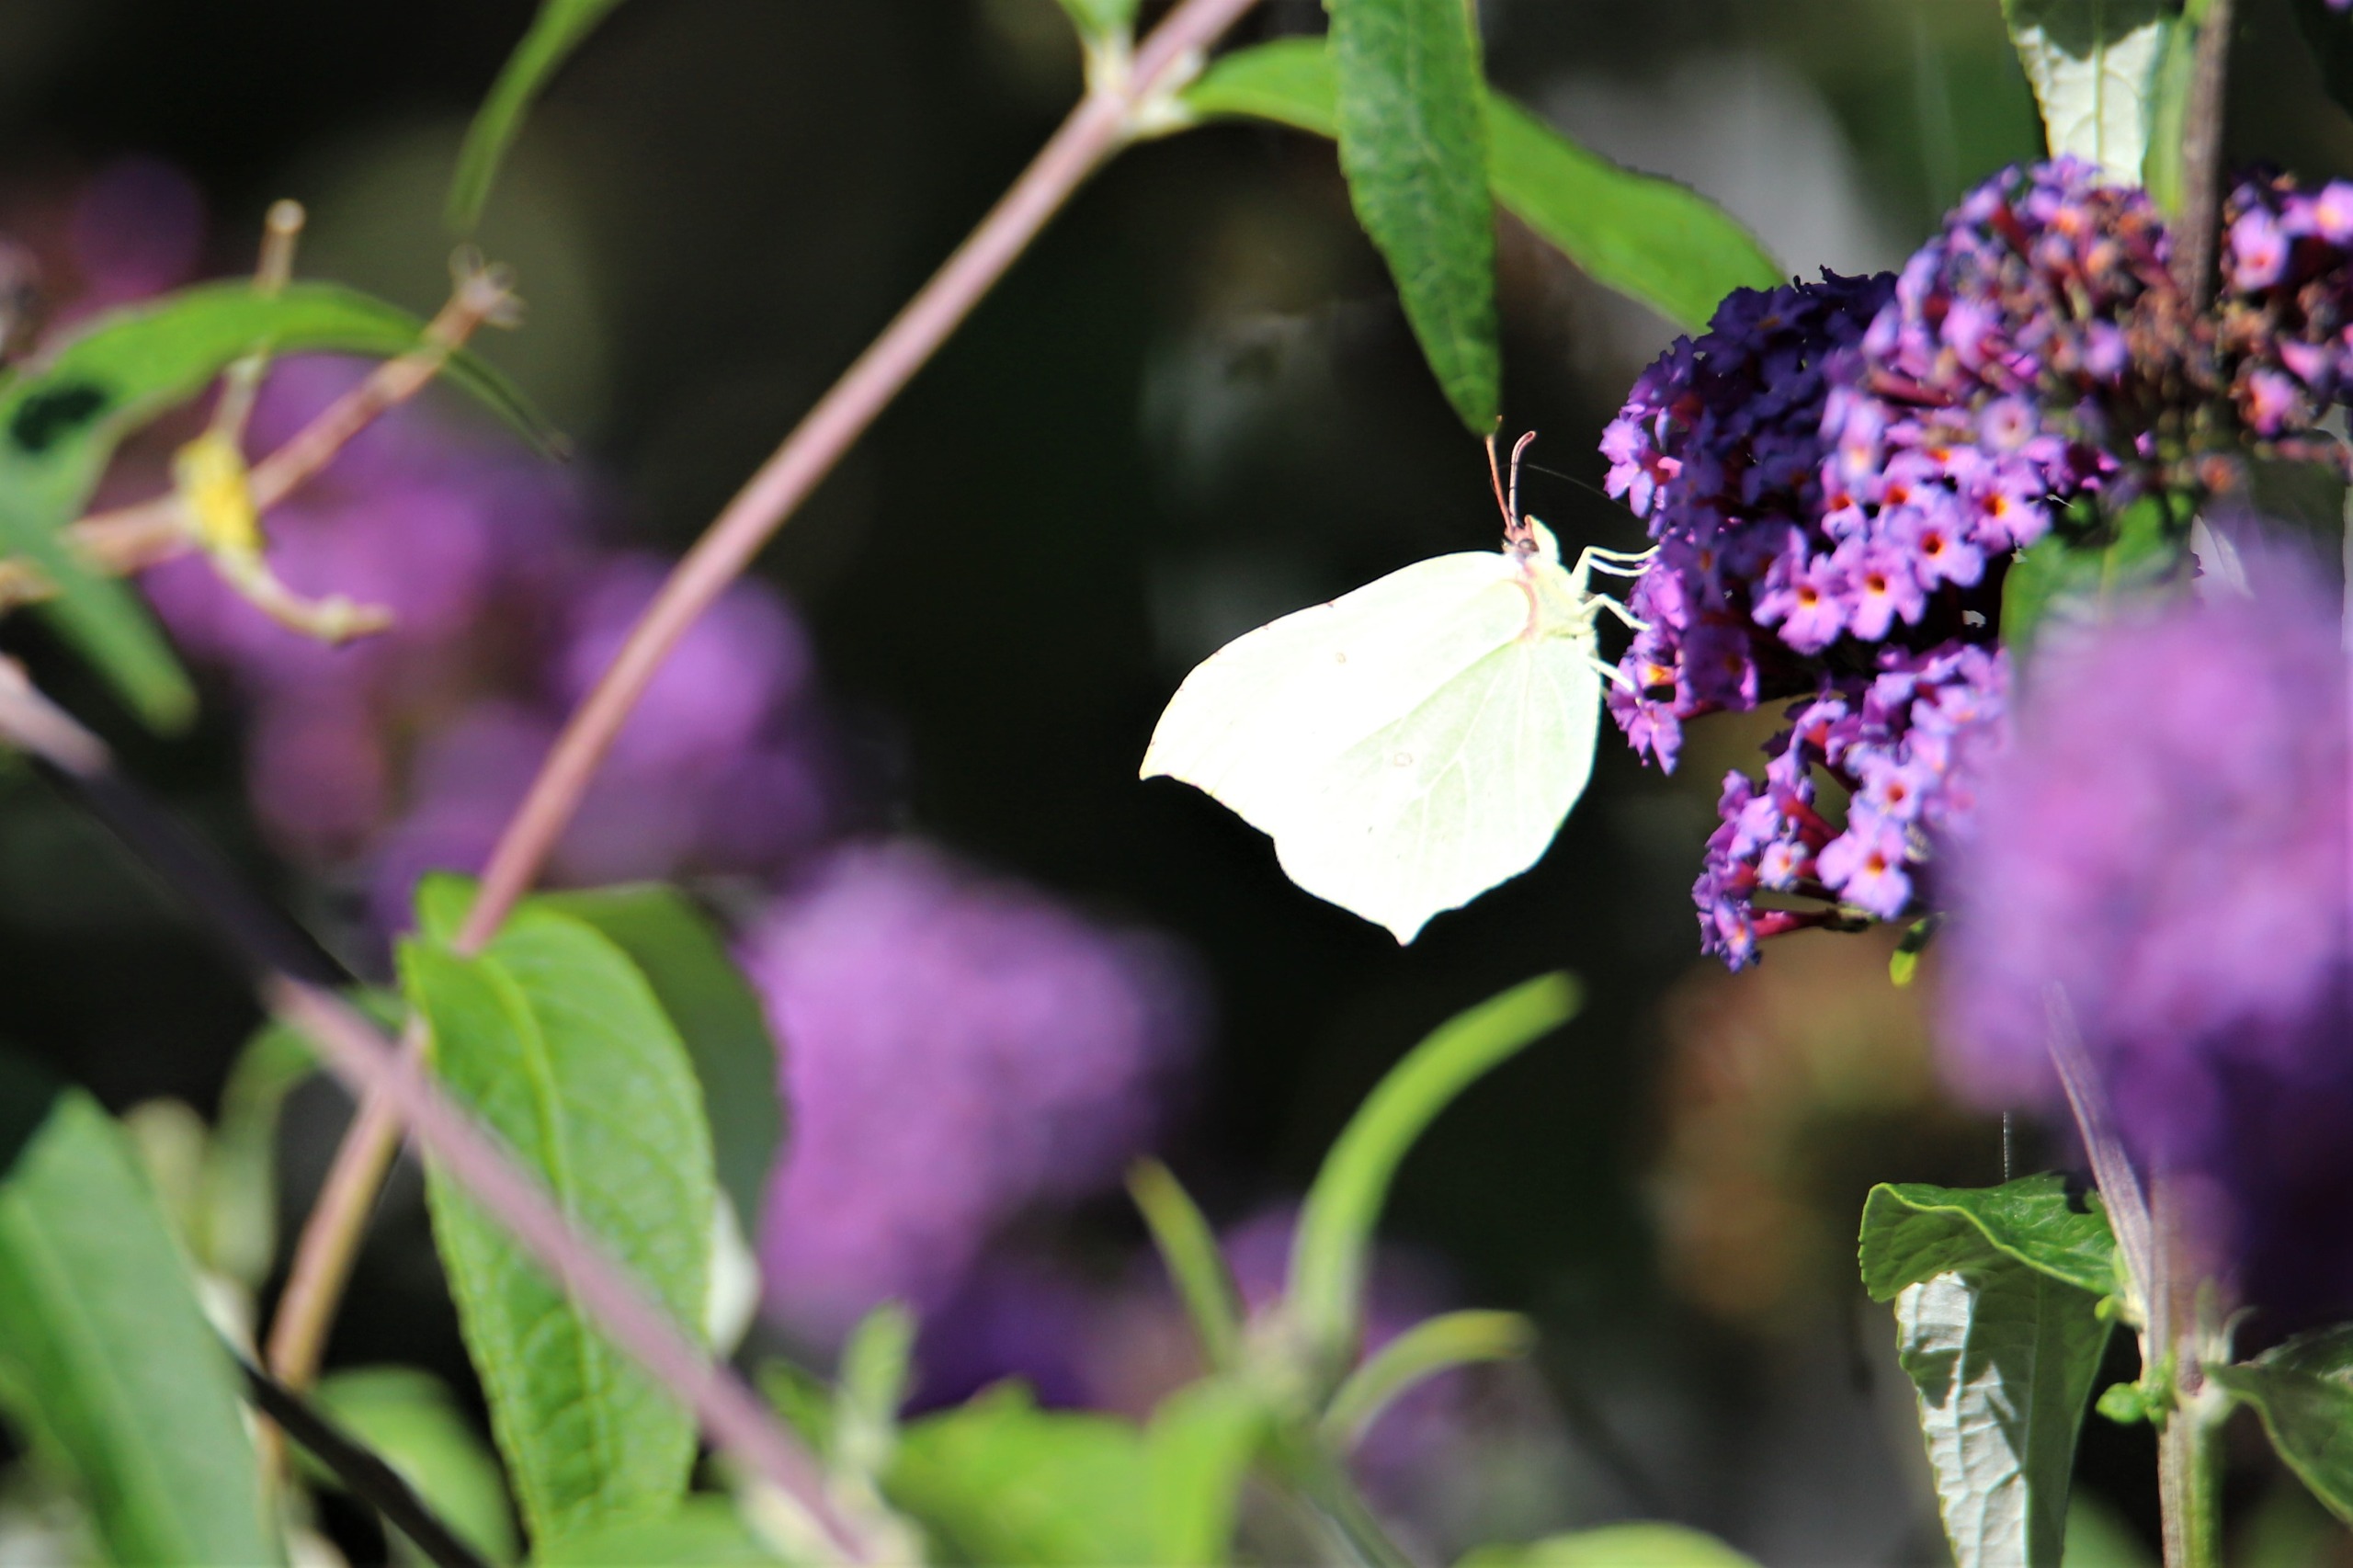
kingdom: Animalia
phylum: Arthropoda
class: Insecta
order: Lepidoptera
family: Pieridae
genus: Gonepteryx
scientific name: Gonepteryx rhamni
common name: Citronsommerfugl
